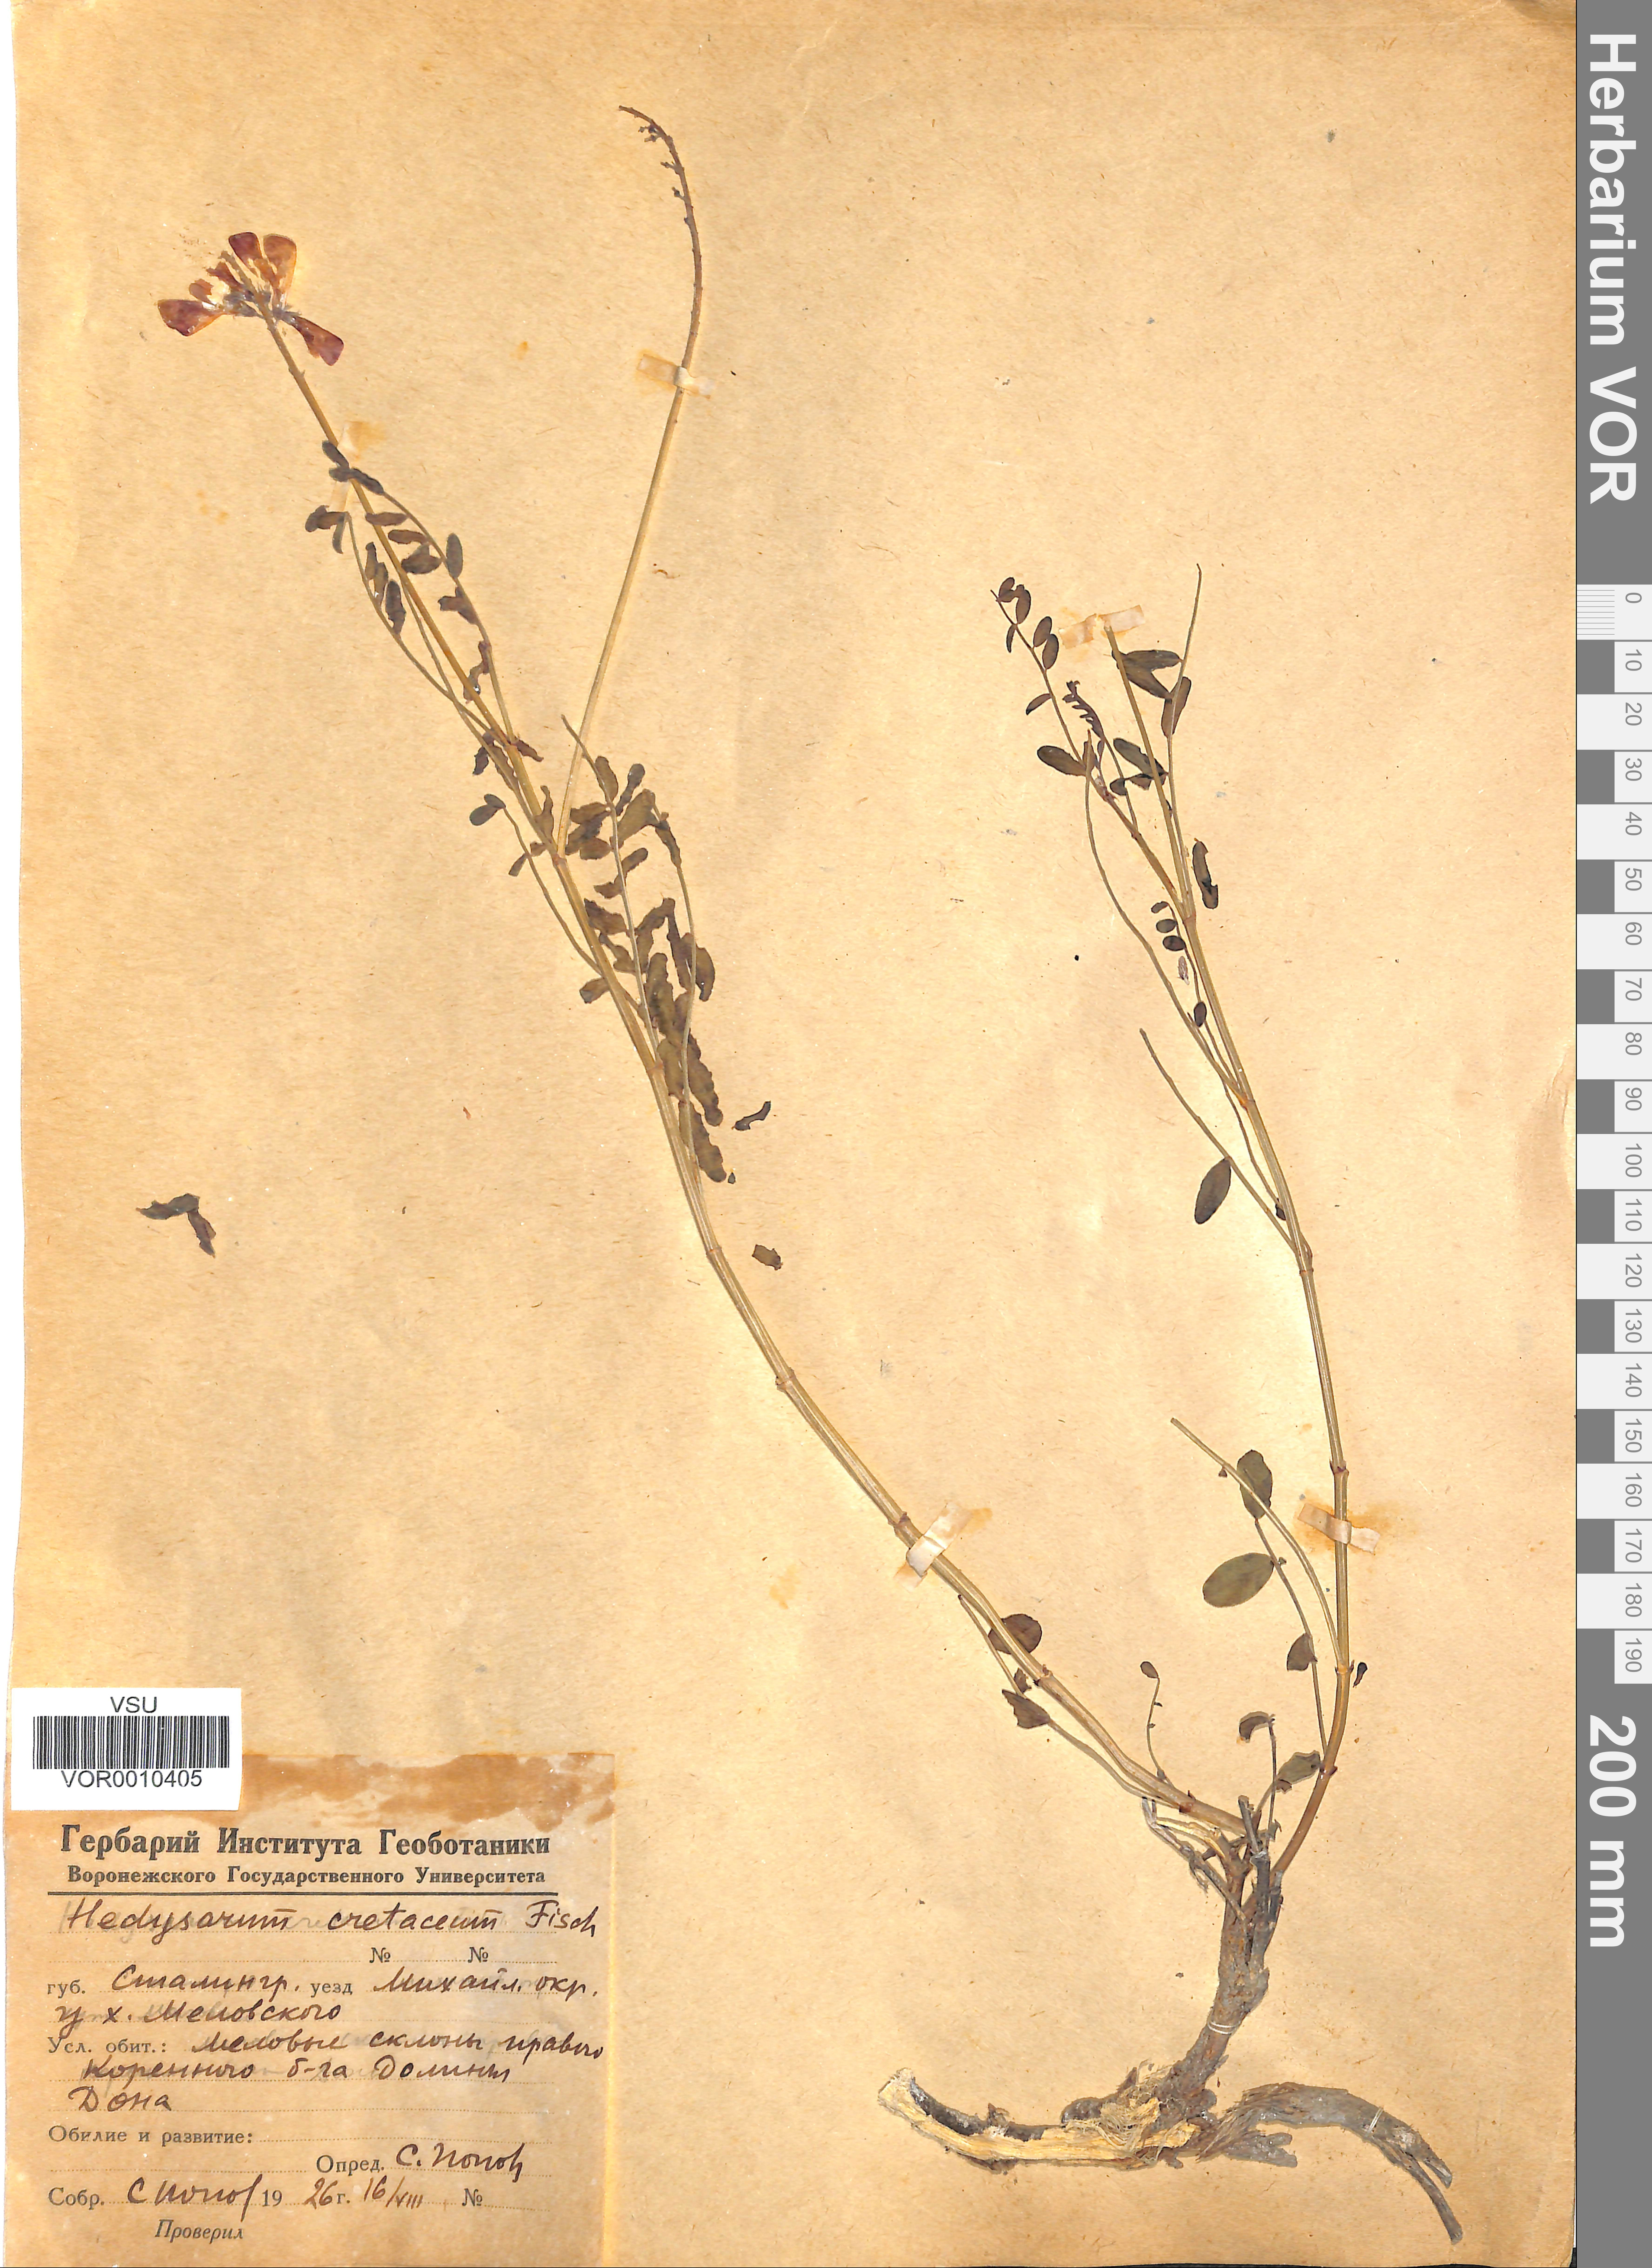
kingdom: Plantae
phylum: Tracheophyta
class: Magnoliopsida
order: Fabales
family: Fabaceae
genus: Hedysarum
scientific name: Hedysarum cretaceum
